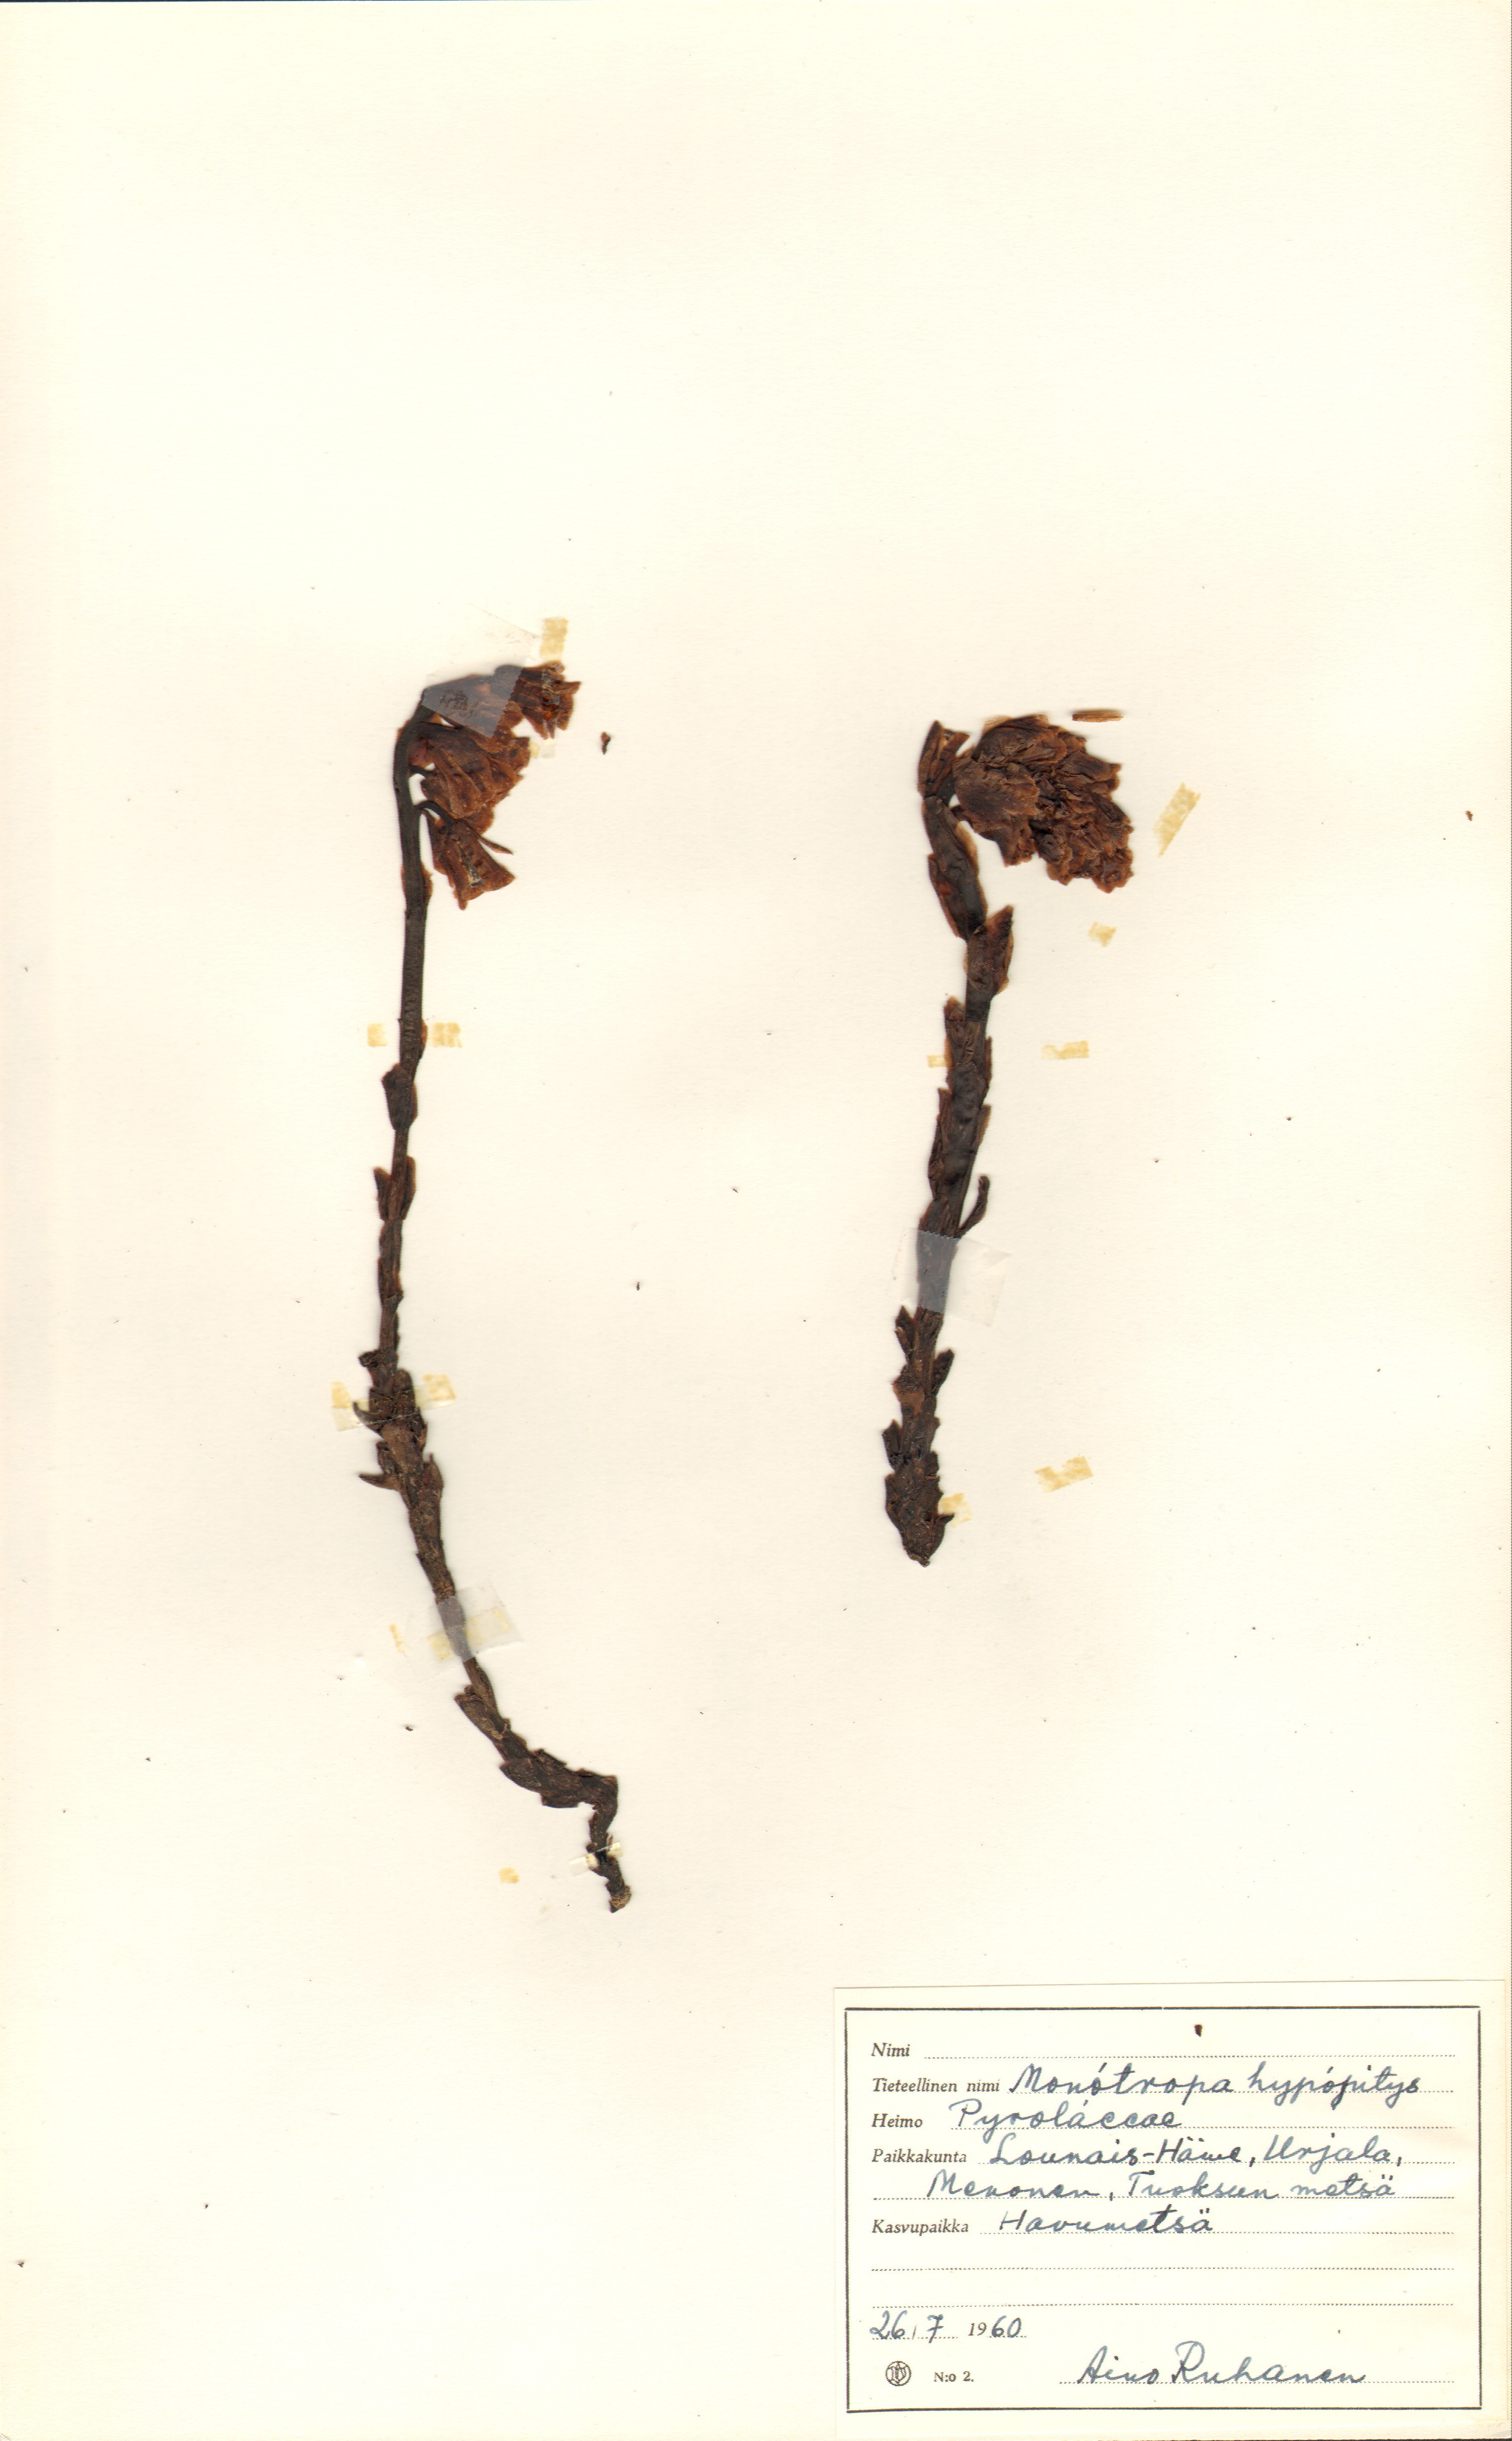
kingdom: Plantae
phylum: Tracheophyta
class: Magnoliopsida
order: Ericales
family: Ericaceae
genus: Hypopitys
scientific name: Hypopitys monotropa
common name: Yellow bird's-nest
